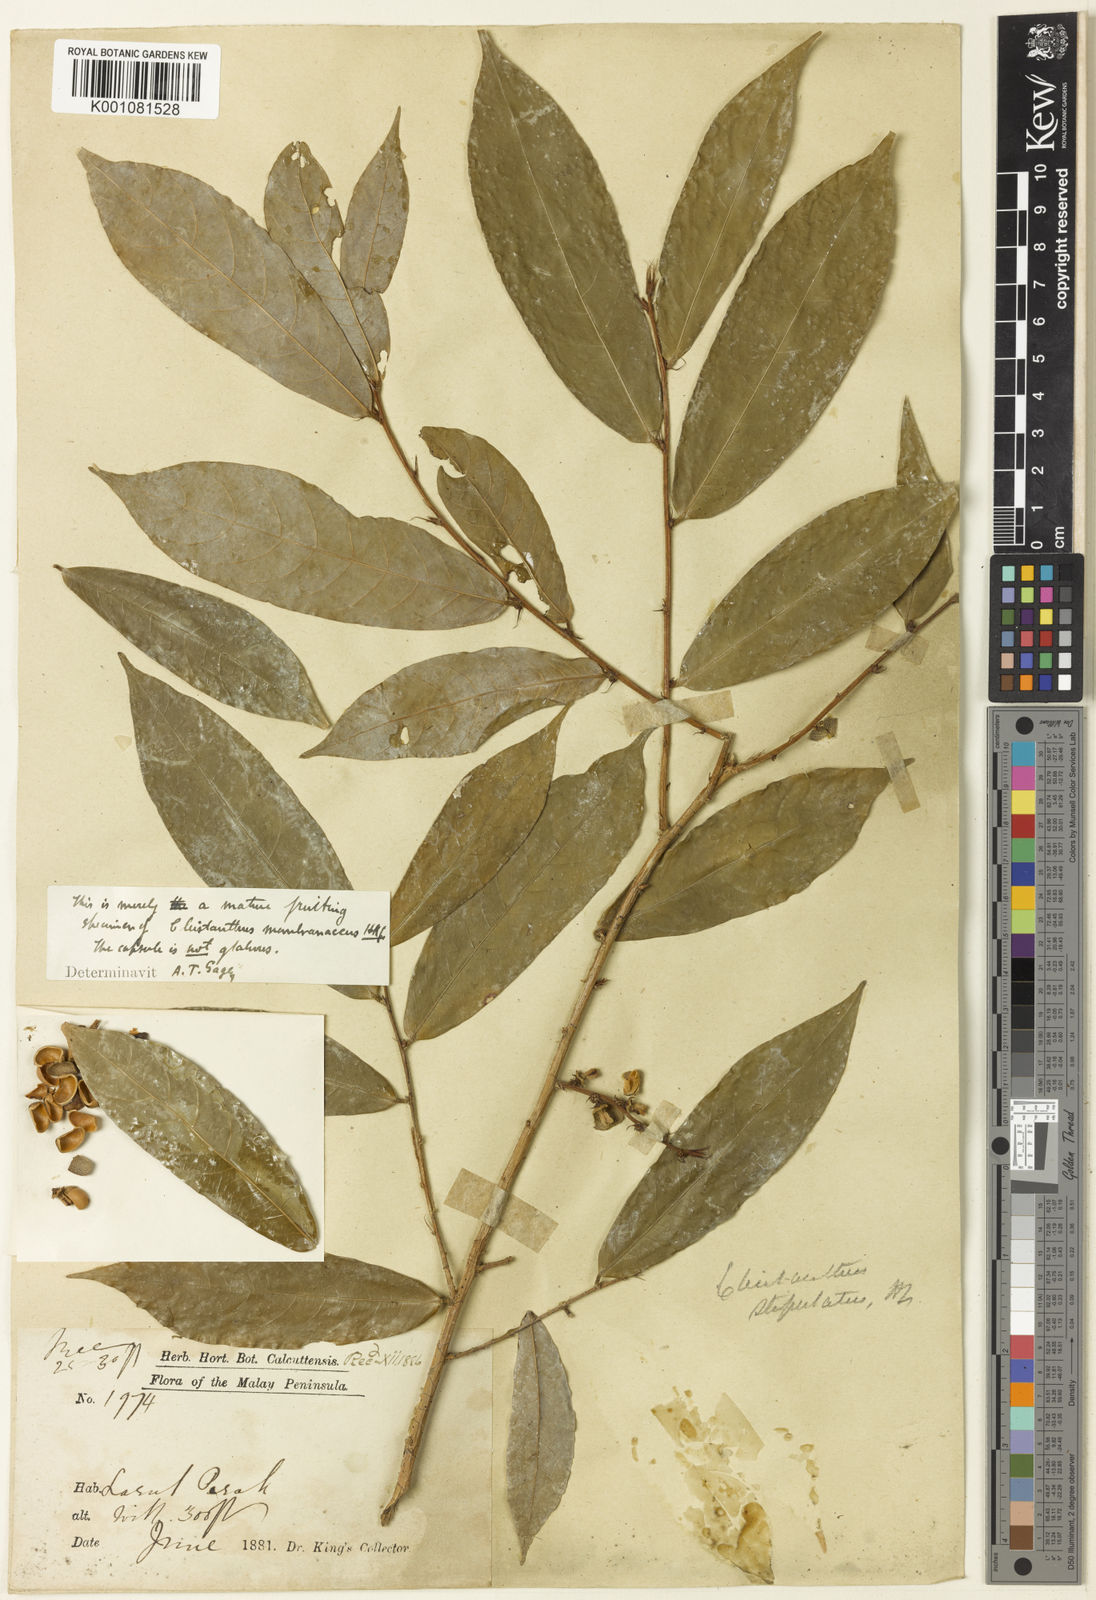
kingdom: Plantae
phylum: Tracheophyta
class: Magnoliopsida
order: Malpighiales
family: Phyllanthaceae
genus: Cleistanthus
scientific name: Cleistanthus membranaceus
